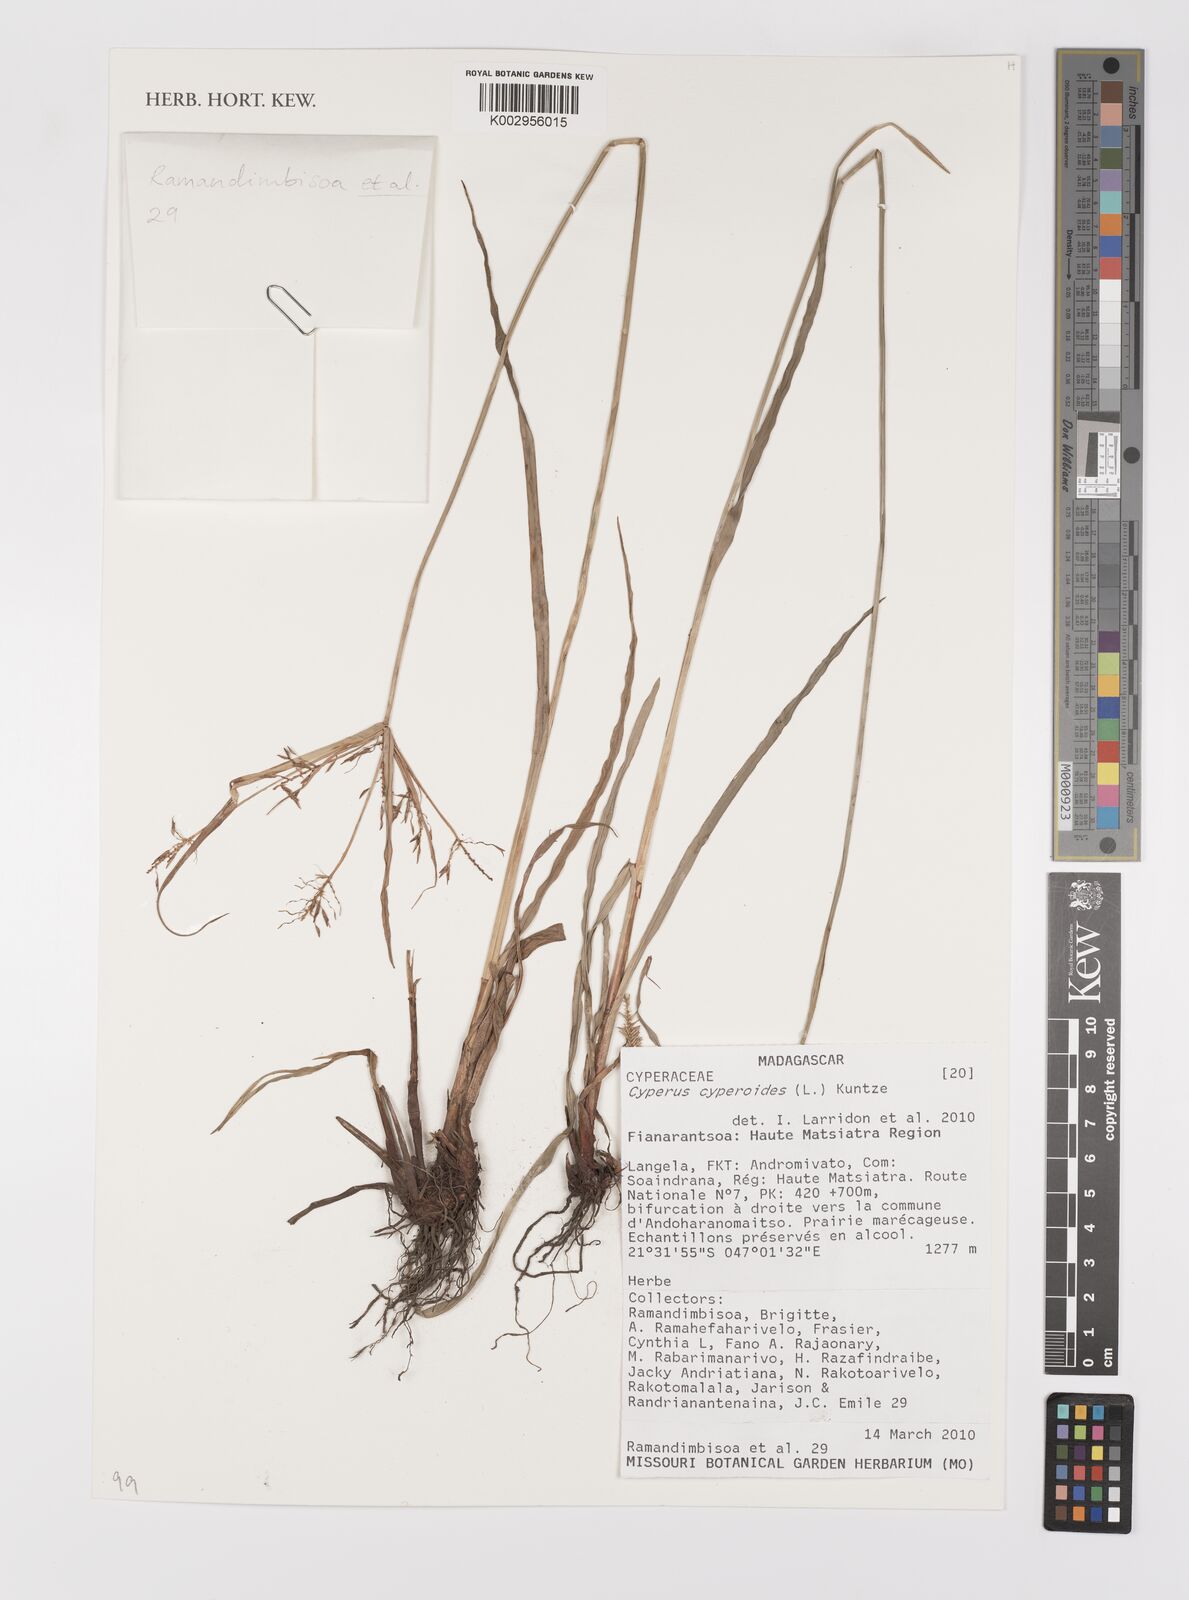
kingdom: Plantae
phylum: Tracheophyta
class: Liliopsida
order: Poales
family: Cyperaceae
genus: Cyperus
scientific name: Cyperus cyperoides
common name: Pacific island flat sedge
